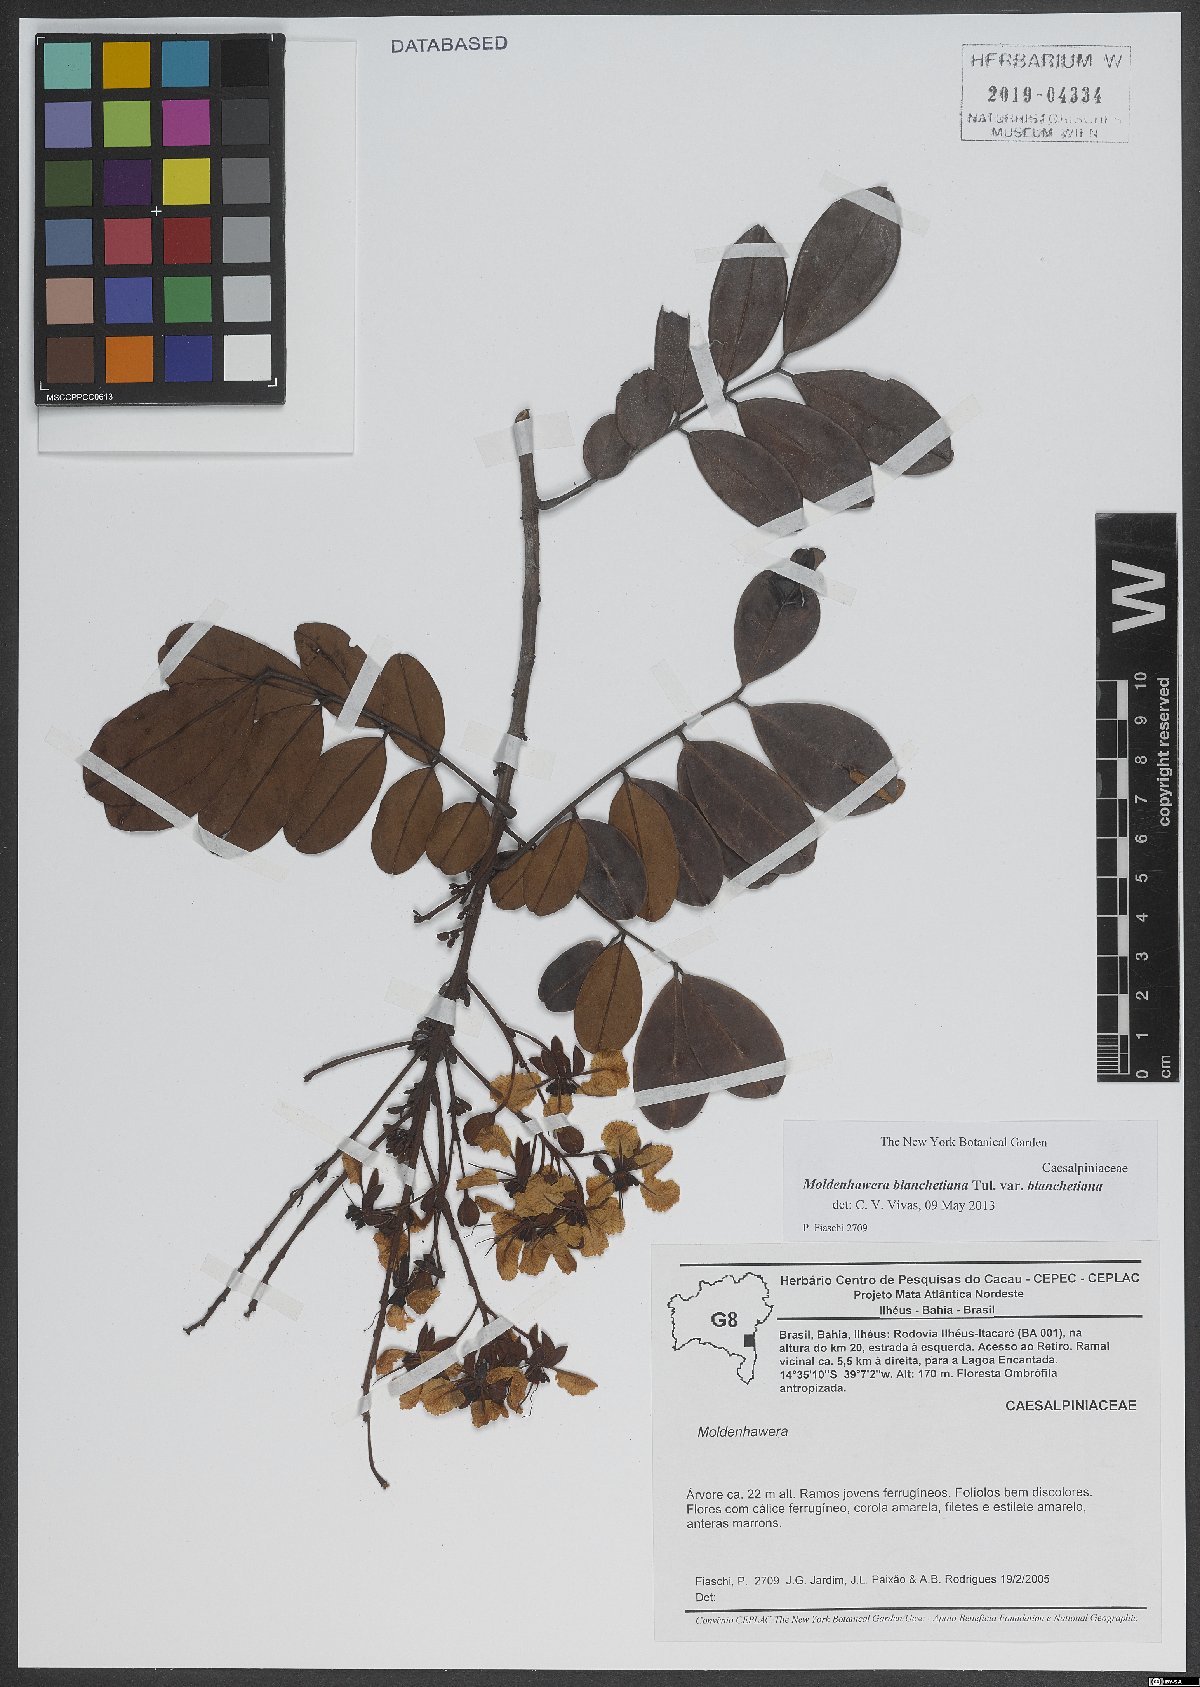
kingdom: Plantae
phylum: Tracheophyta
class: Magnoliopsida
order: Fabales
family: Fabaceae
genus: Moldenhawera
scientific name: Moldenhawera blanchetiana
